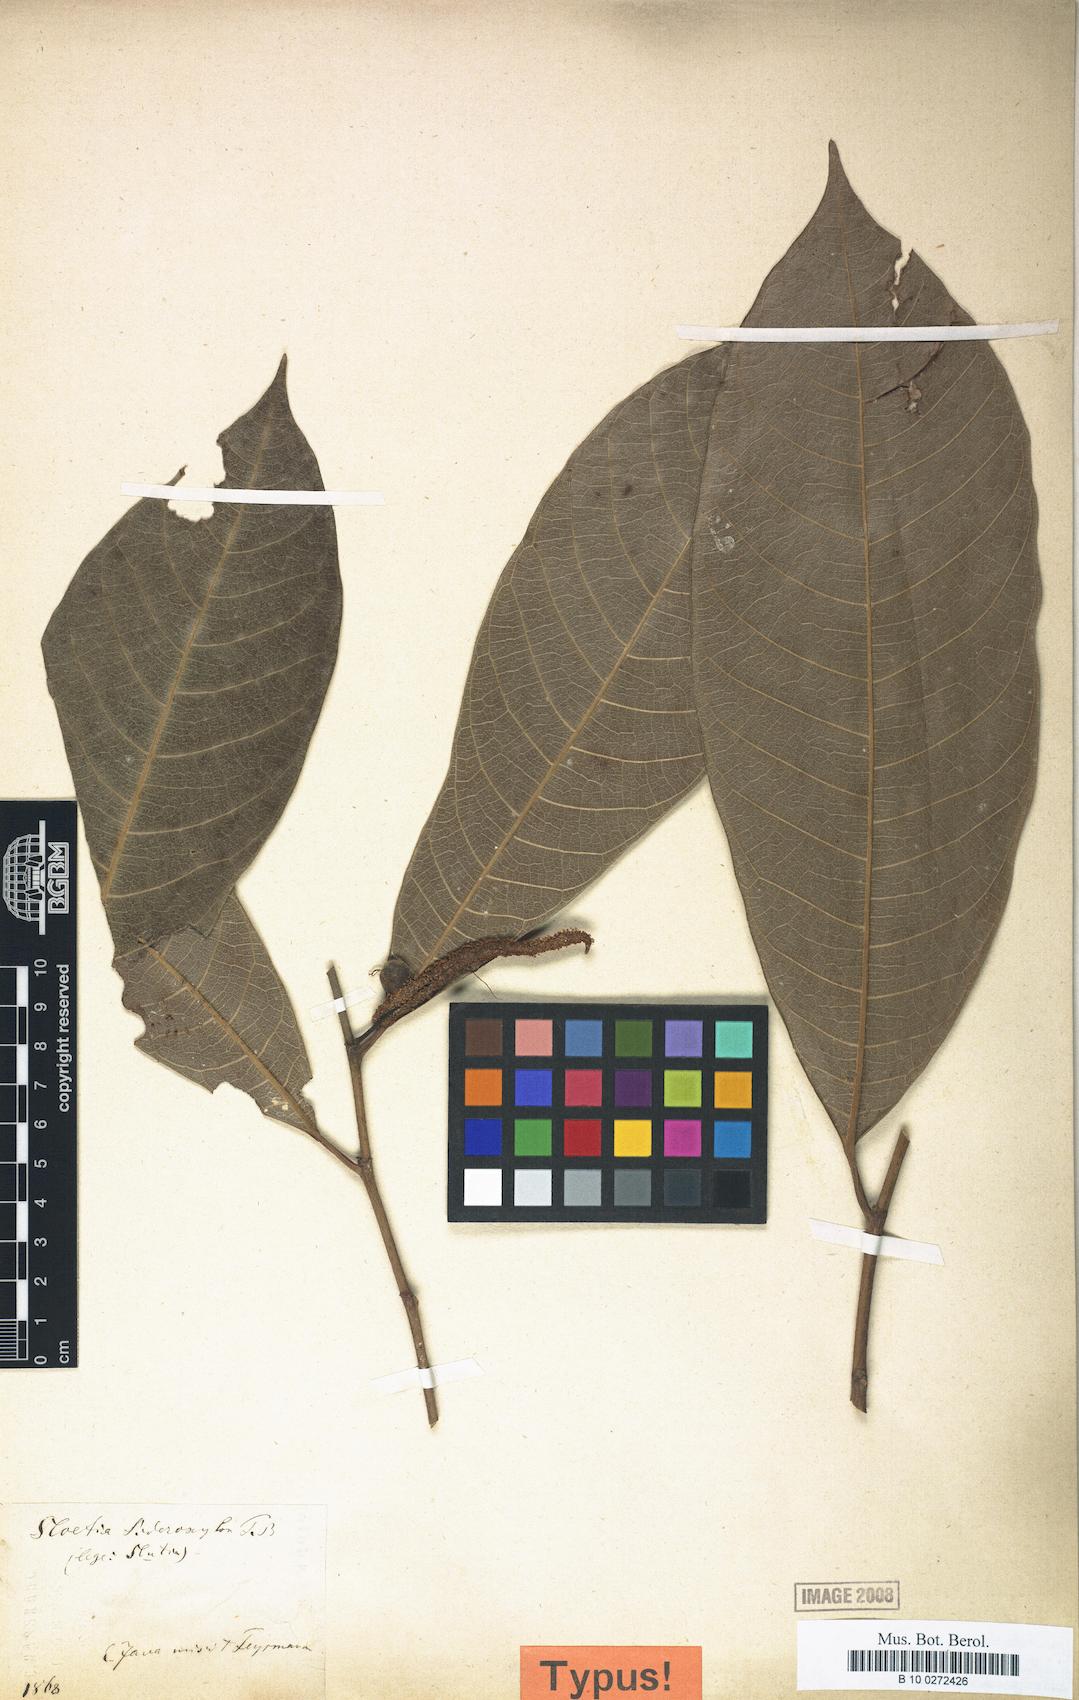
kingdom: Plantae
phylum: Tracheophyta
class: Magnoliopsida
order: Rosales
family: Moraceae
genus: Sloetia
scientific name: Sloetia elongata
